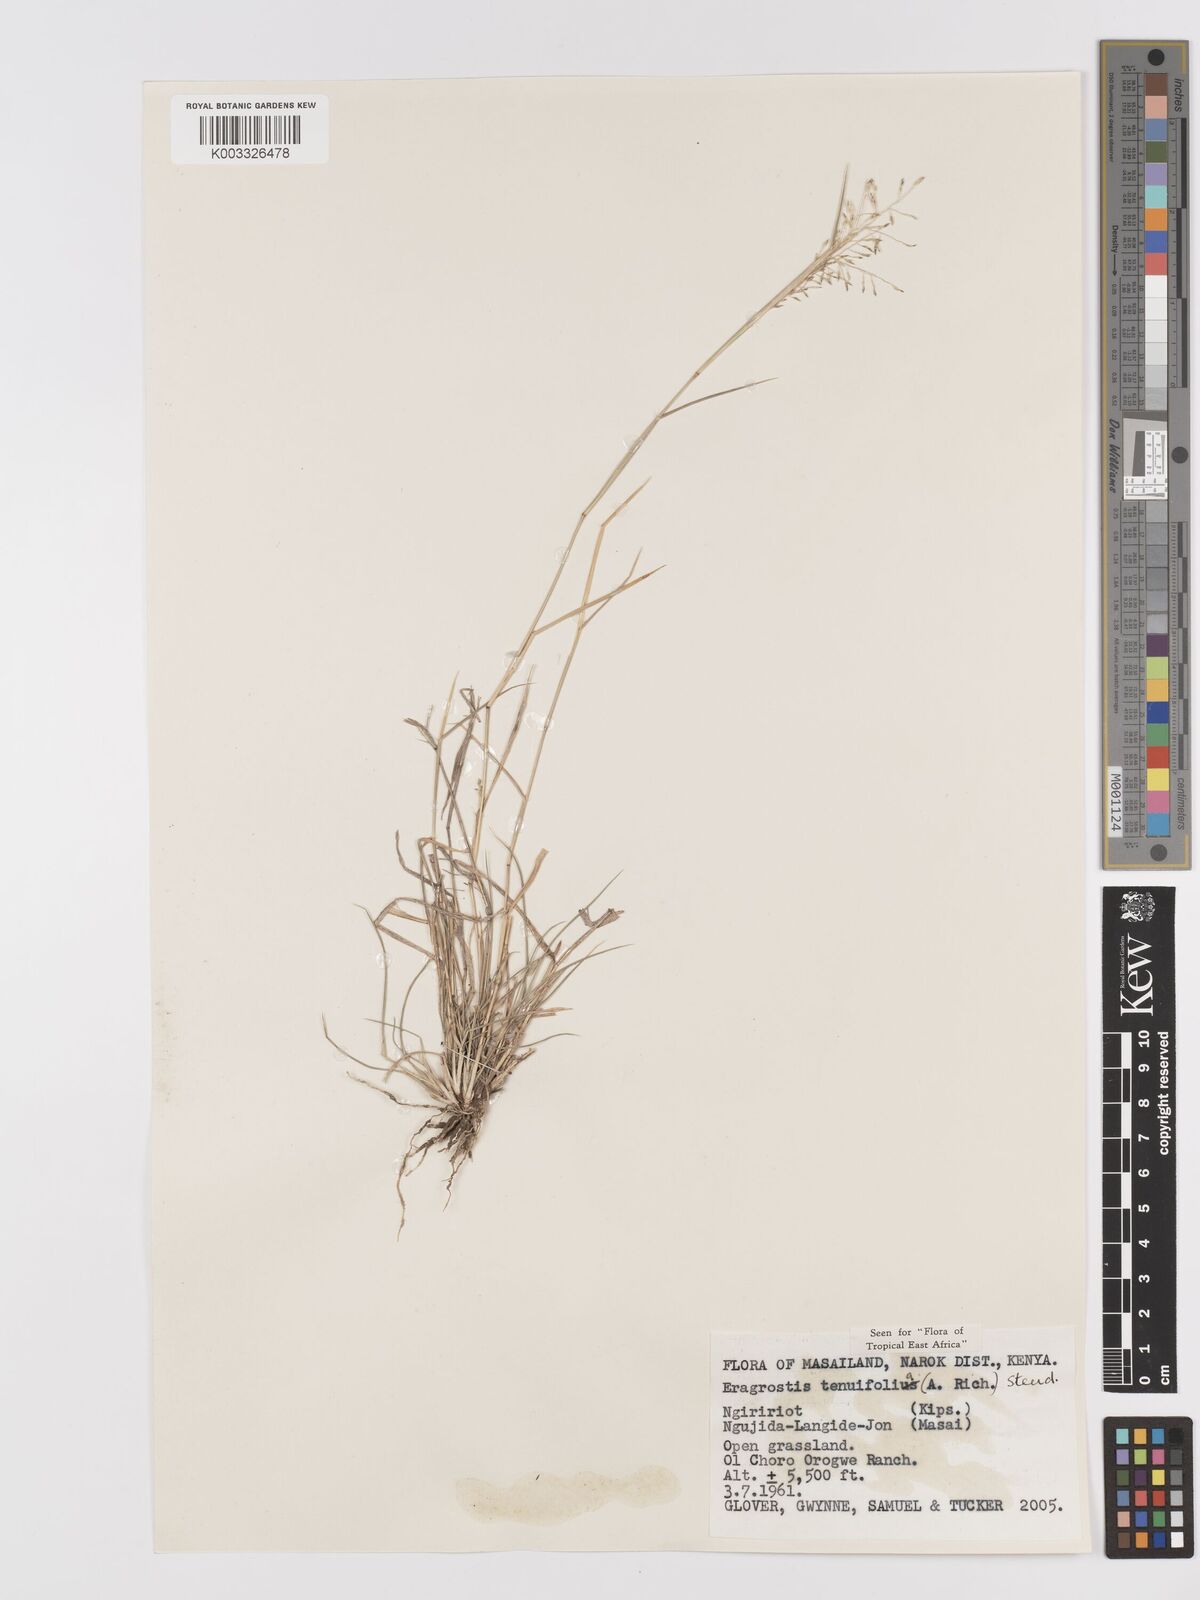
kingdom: Plantae
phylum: Tracheophyta
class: Liliopsida
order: Poales
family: Poaceae
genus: Eragrostis
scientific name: Eragrostis tenuifolia
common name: Elastic grass
